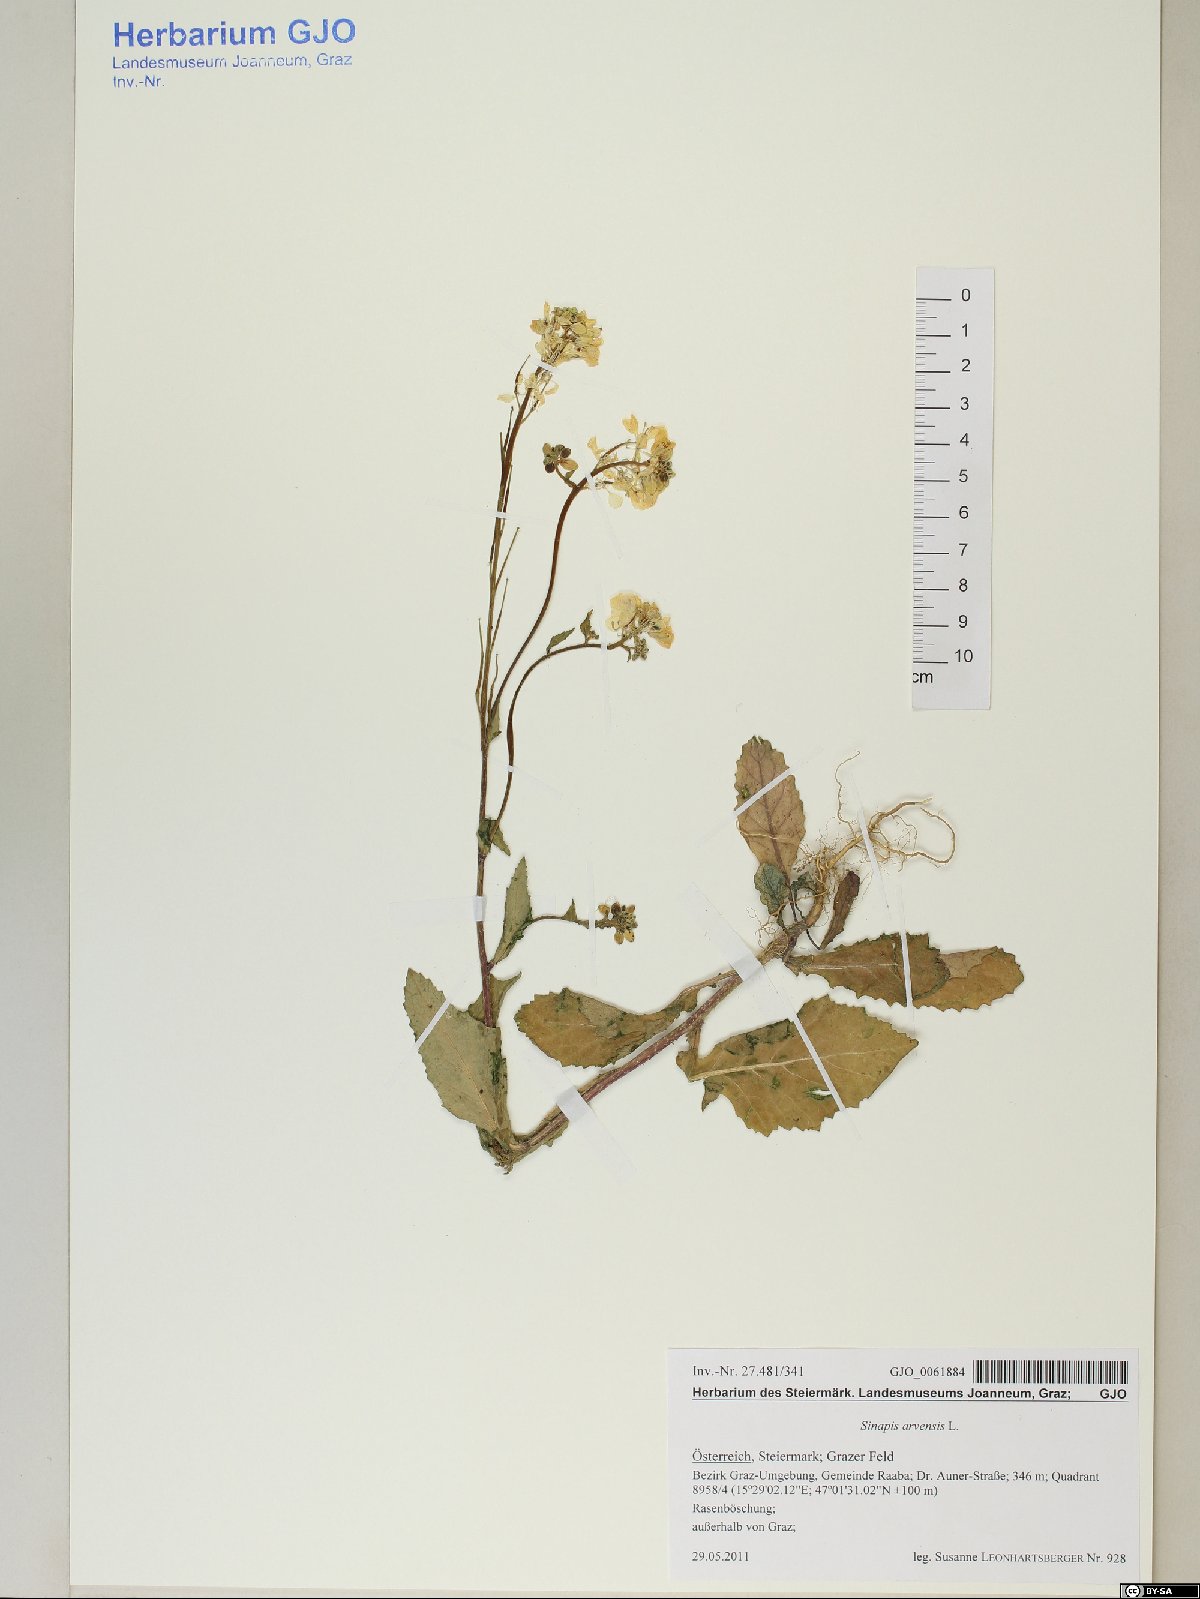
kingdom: Plantae
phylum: Tracheophyta
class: Magnoliopsida
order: Brassicales
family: Brassicaceae
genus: Sinapis
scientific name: Sinapis arvensis
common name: Charlock
